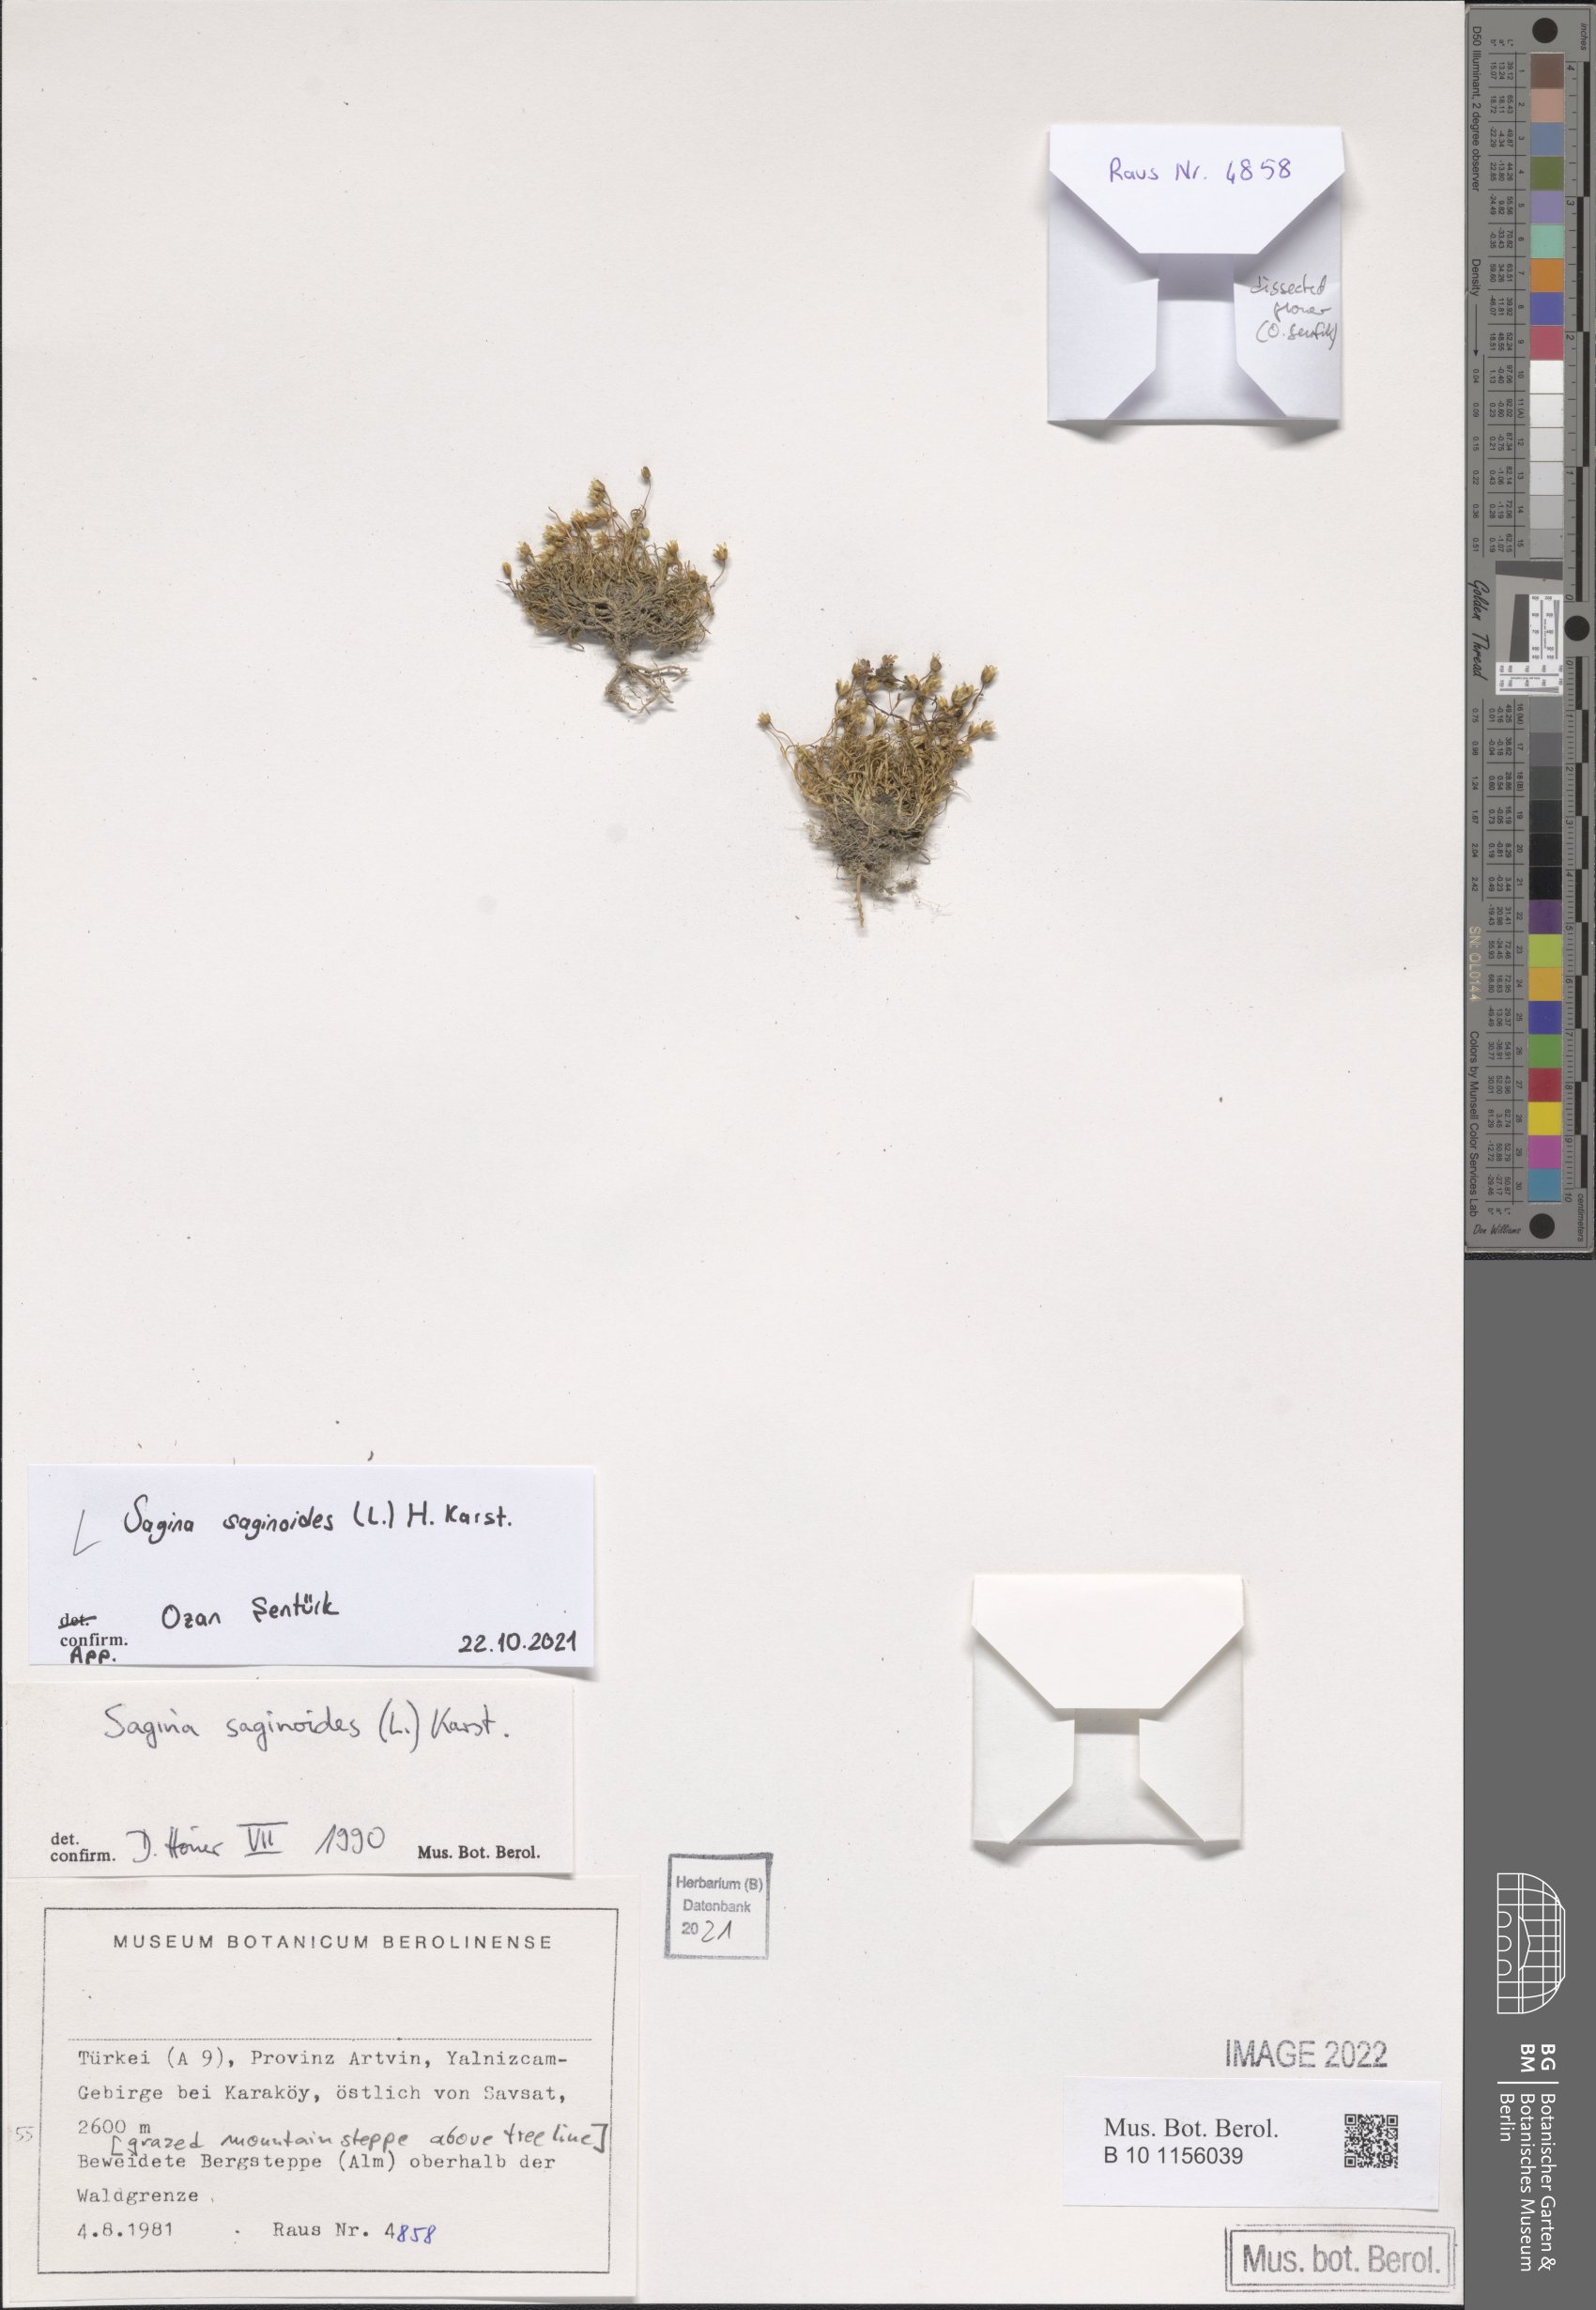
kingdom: Plantae
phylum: Tracheophyta
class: Magnoliopsida
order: Caryophyllales
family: Caryophyllaceae
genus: Sagina
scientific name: Sagina saginoides
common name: Alpine pearlwort
